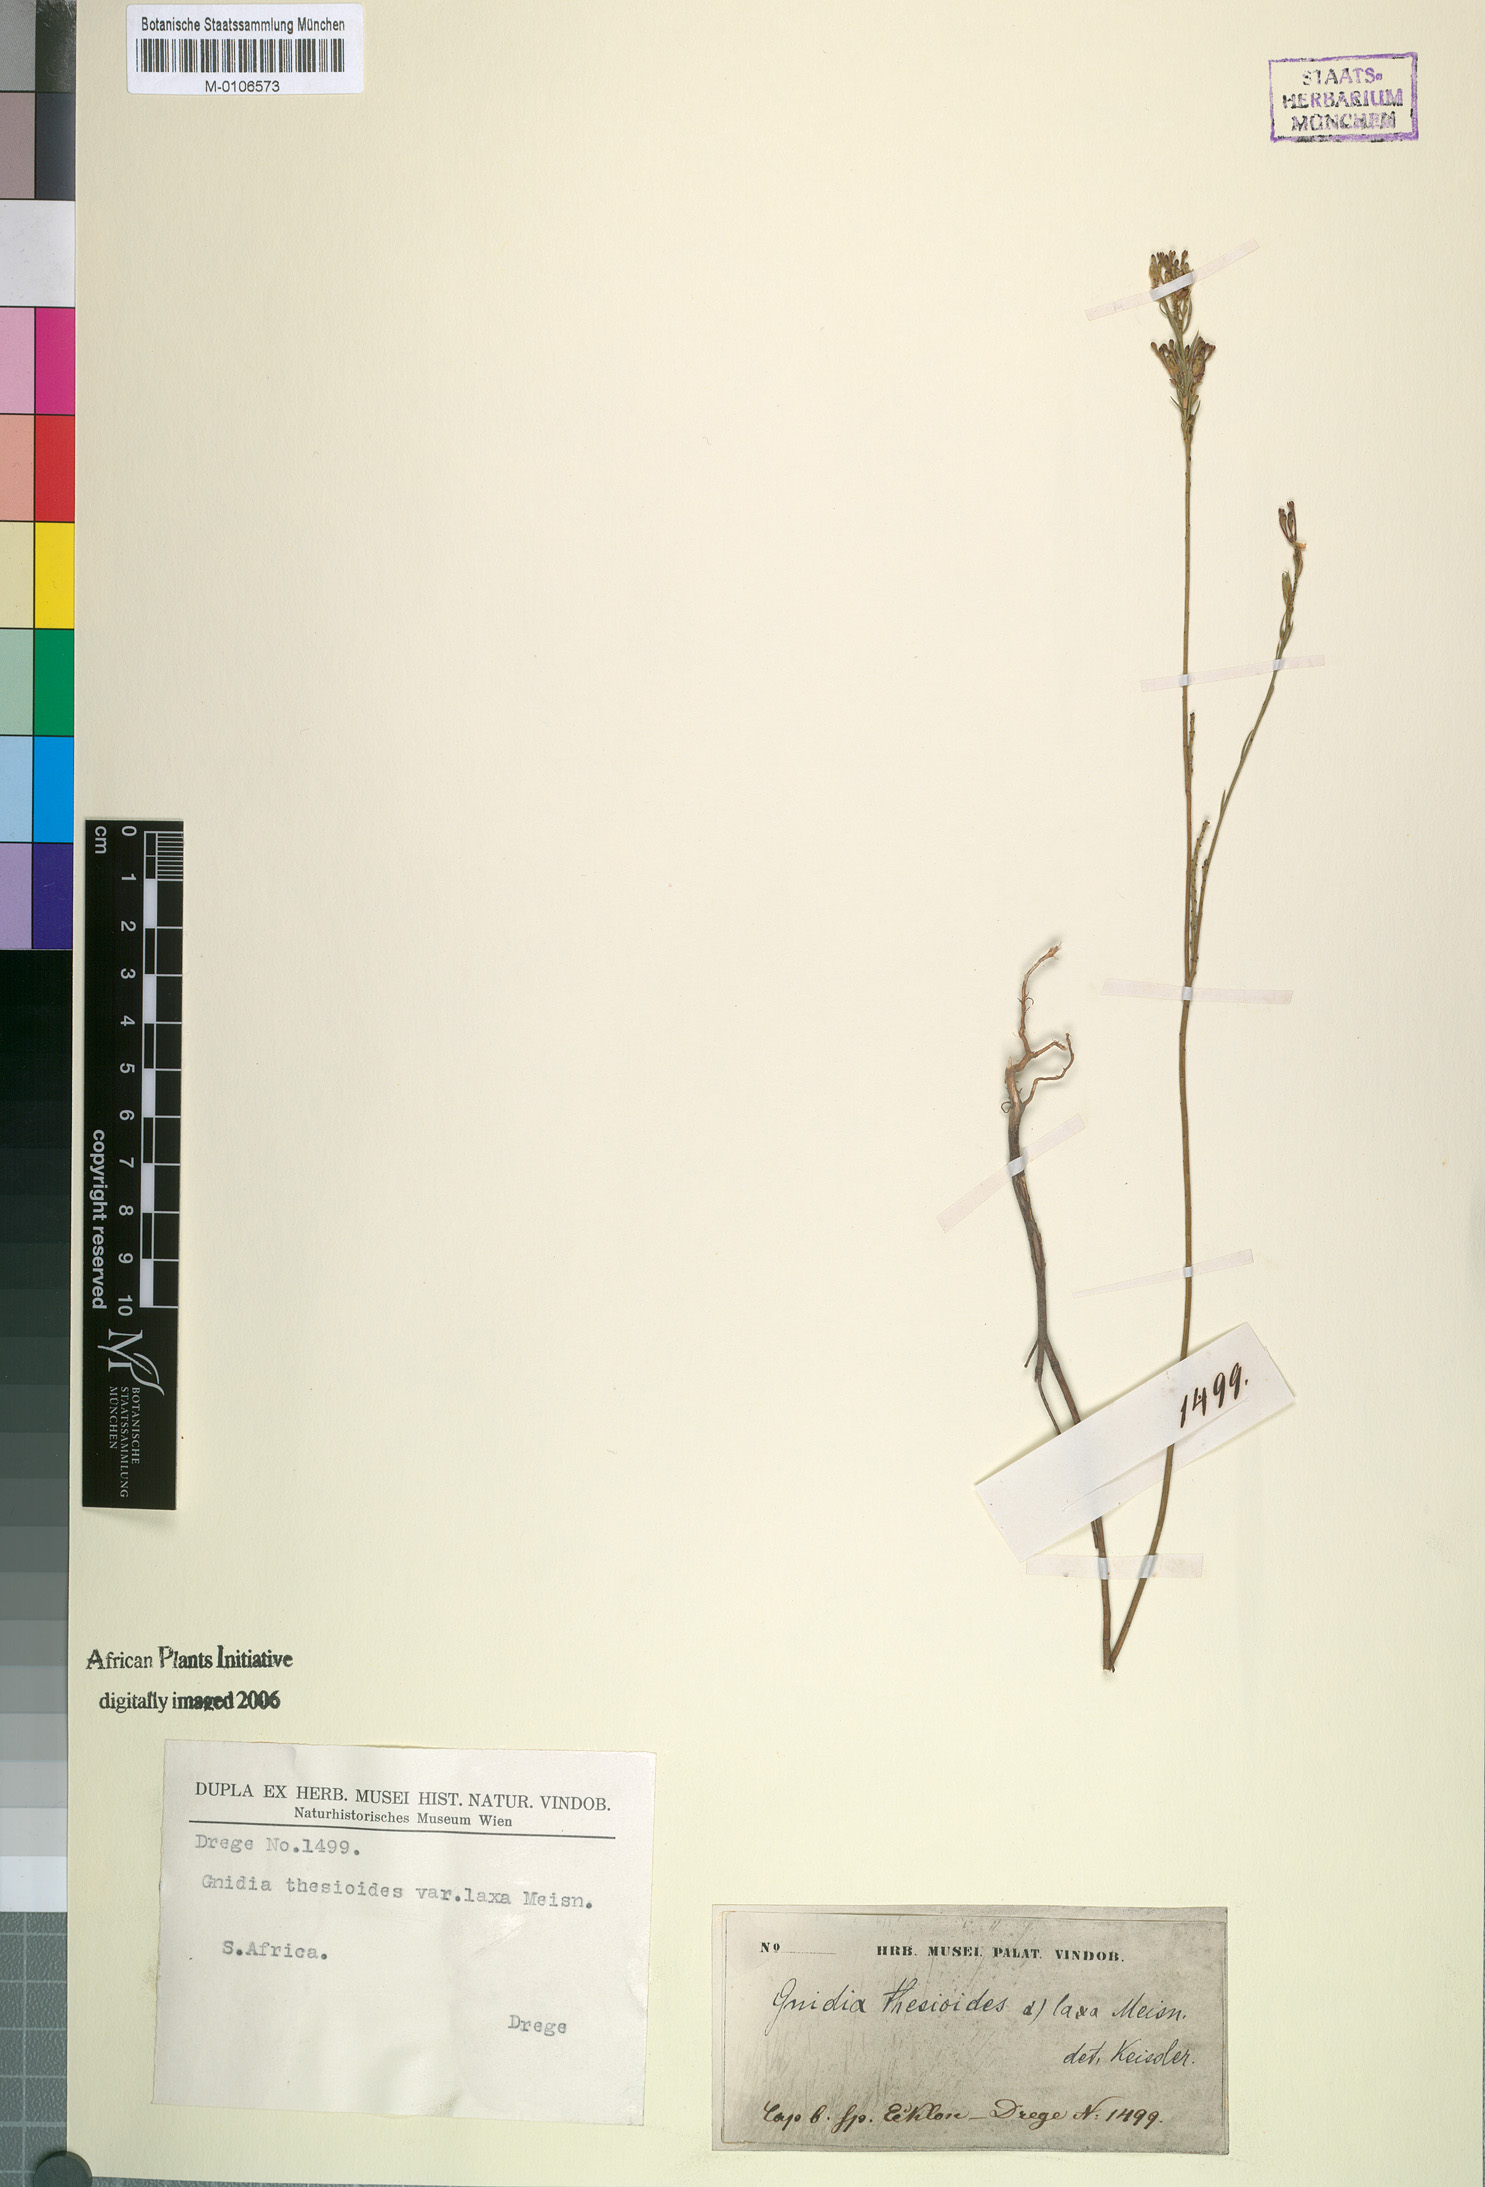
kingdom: Plantae
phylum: Tracheophyta
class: Magnoliopsida
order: Malvales
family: Thymelaeaceae
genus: Gnidia
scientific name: Gnidia thesioides
